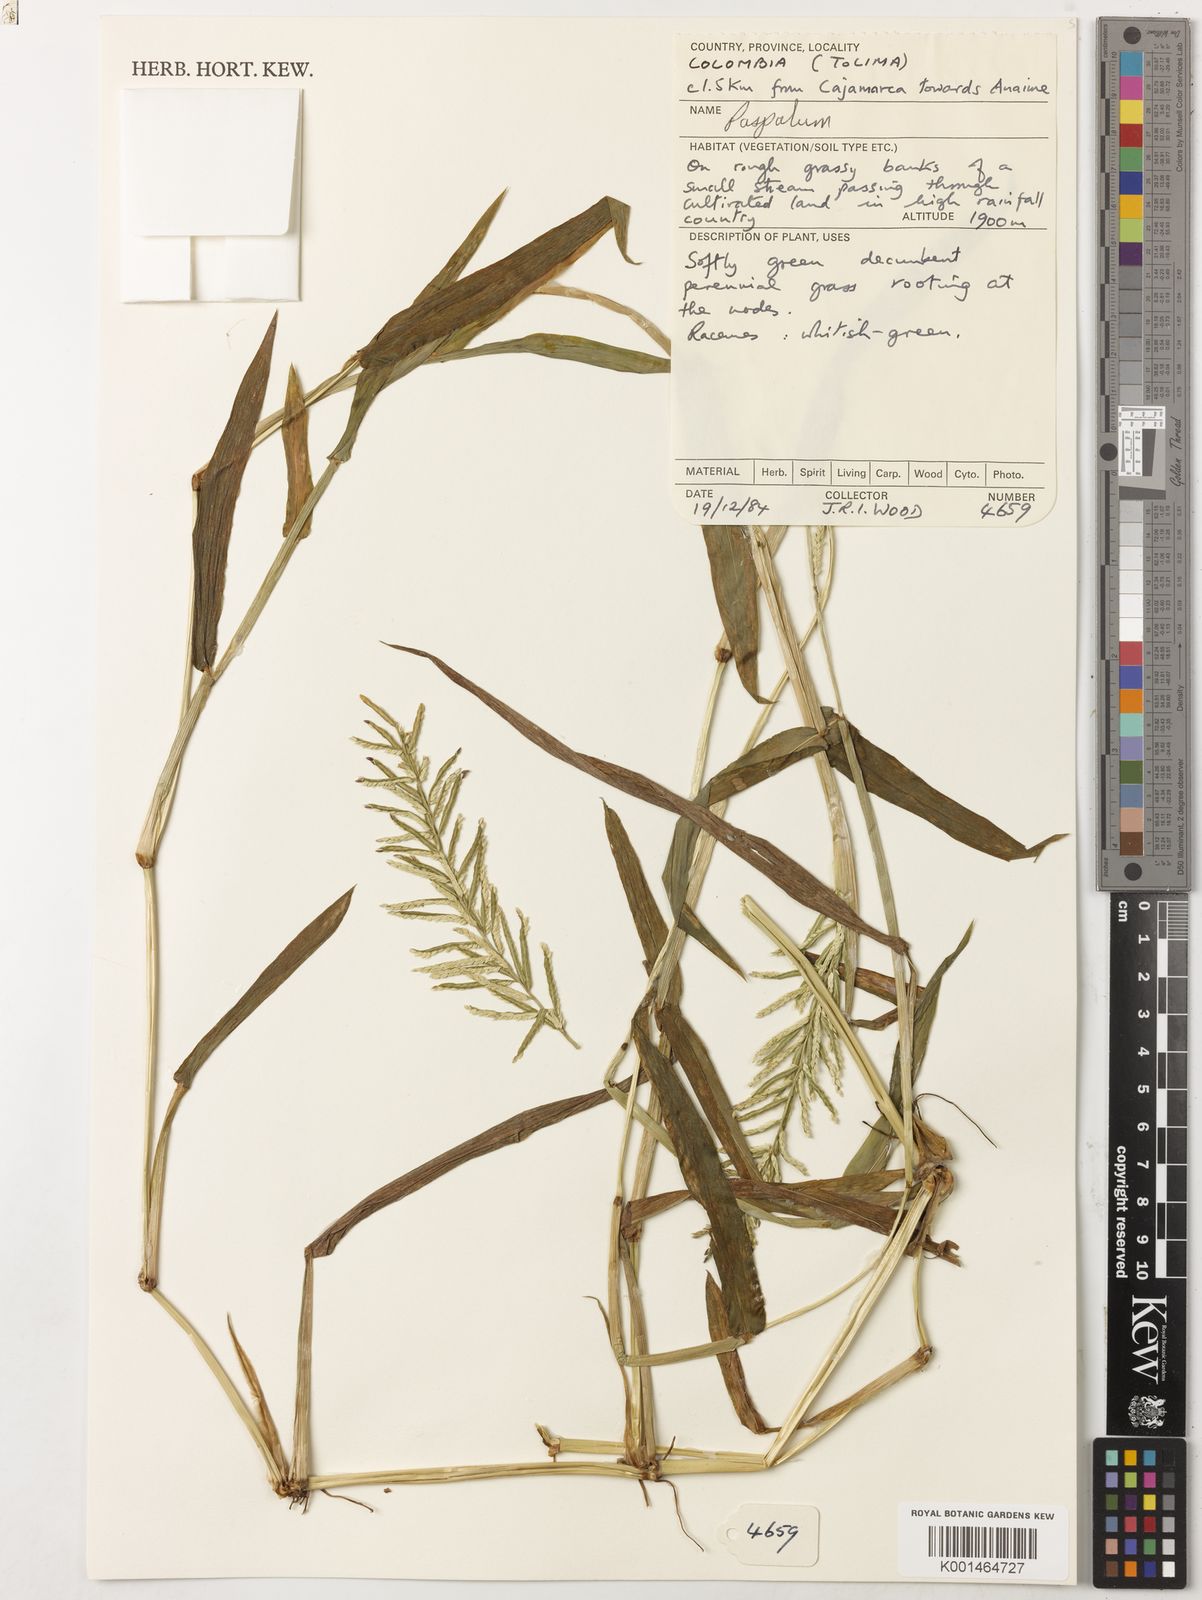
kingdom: Plantae
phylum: Tracheophyta
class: Liliopsida
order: Poales
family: Poaceae
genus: Paspalum
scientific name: Paspalum sodiroanum
